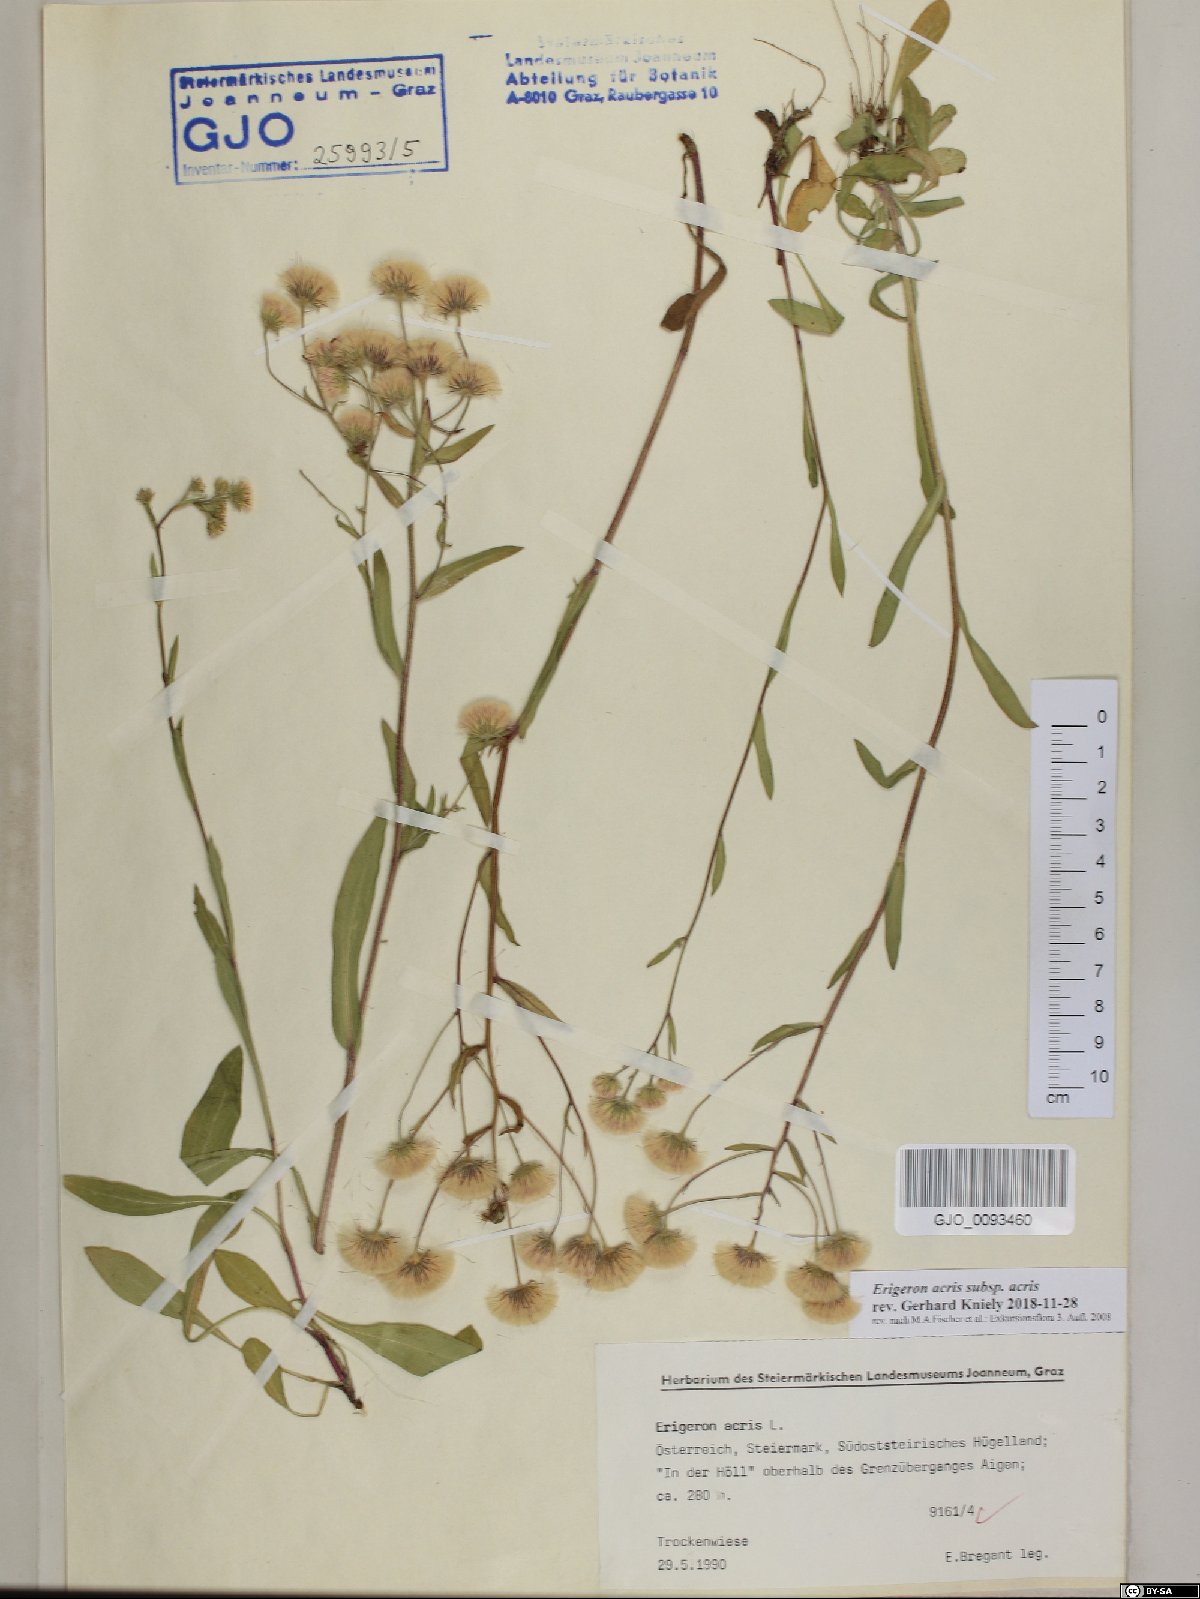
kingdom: Plantae
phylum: Tracheophyta
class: Magnoliopsida
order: Asterales
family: Asteraceae
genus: Erigeron
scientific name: Erigeron acris
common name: Blue fleabane
